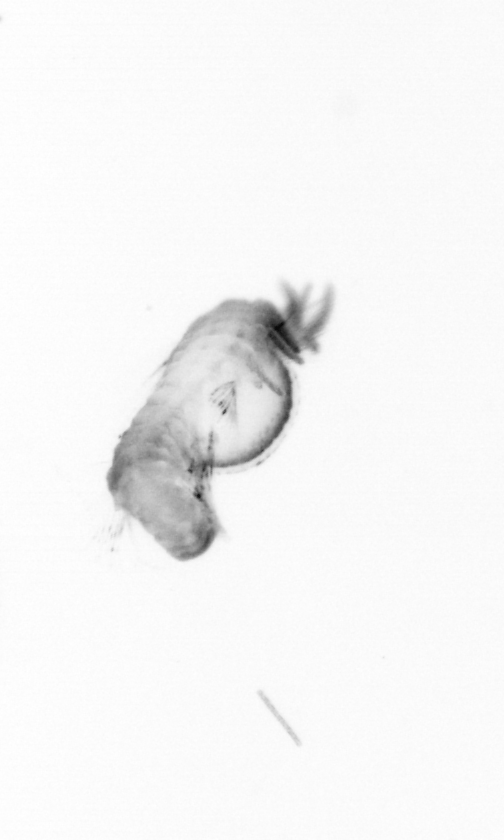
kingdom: Animalia
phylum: Annelida
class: Polychaeta
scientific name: Polychaeta
